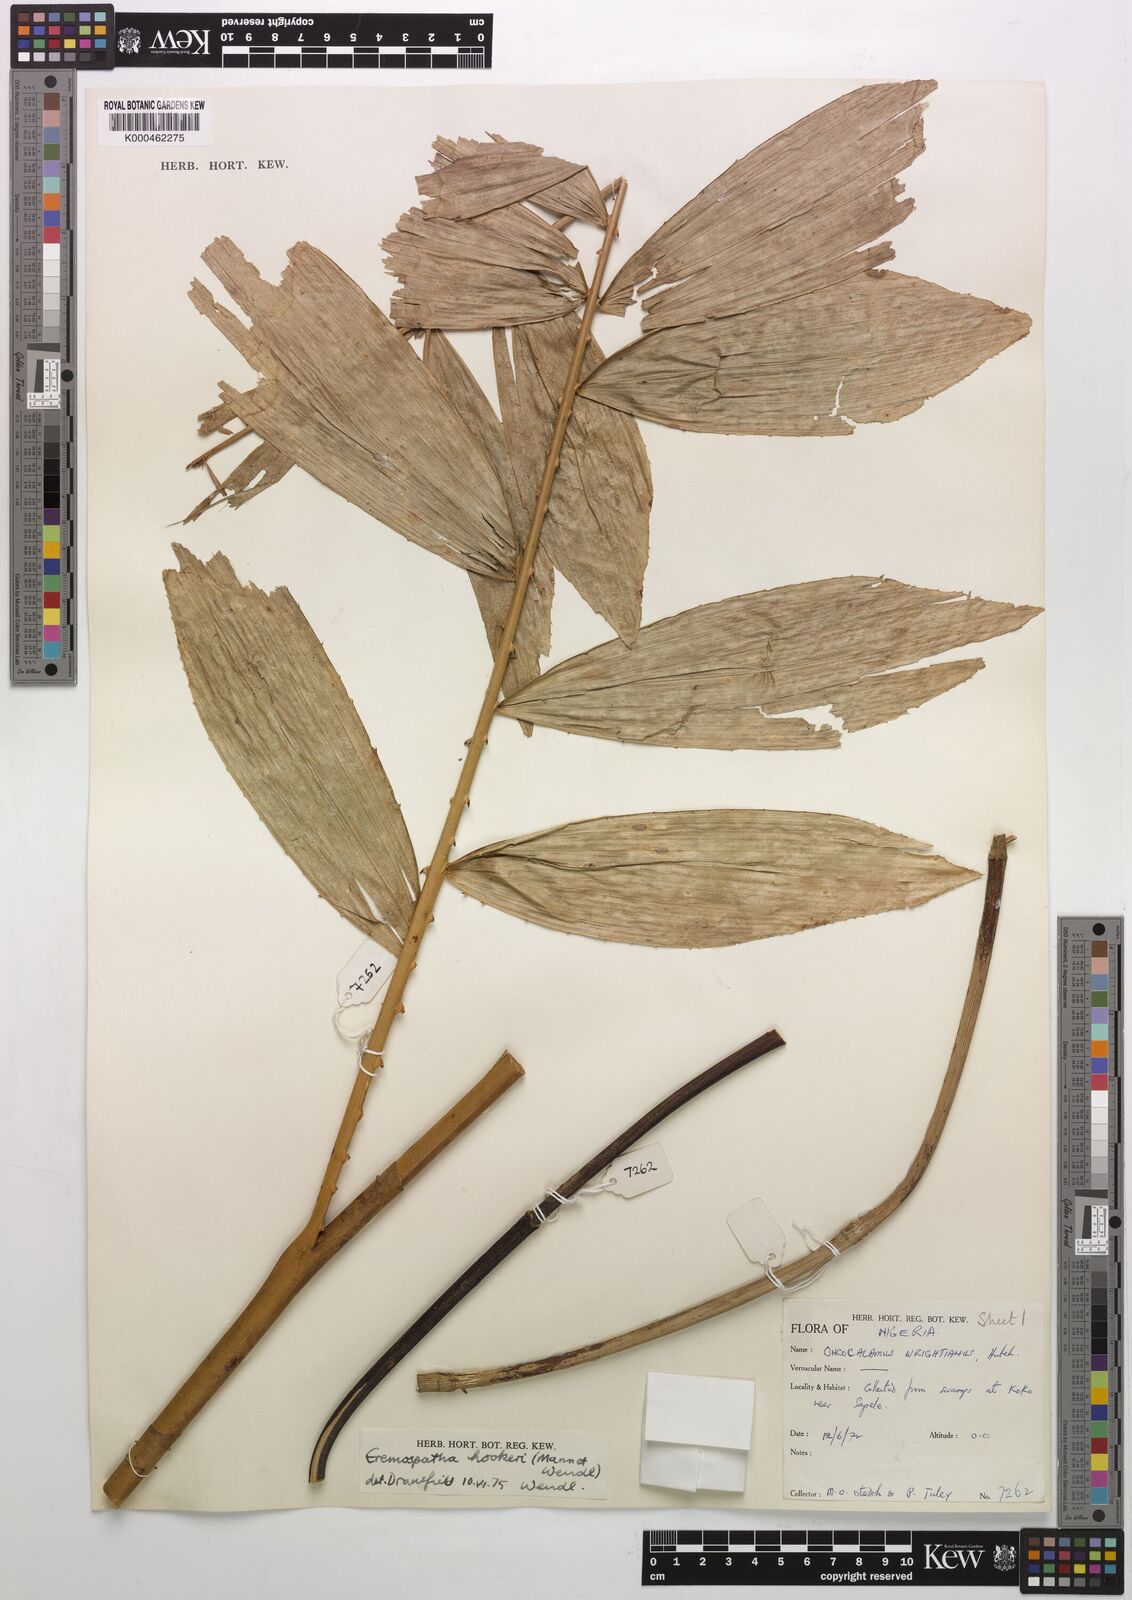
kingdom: Plantae
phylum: Tracheophyta
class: Liliopsida
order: Arecales
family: Arecaceae
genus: Eremospatha
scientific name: Eremospatha hookeri
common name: Rattan
